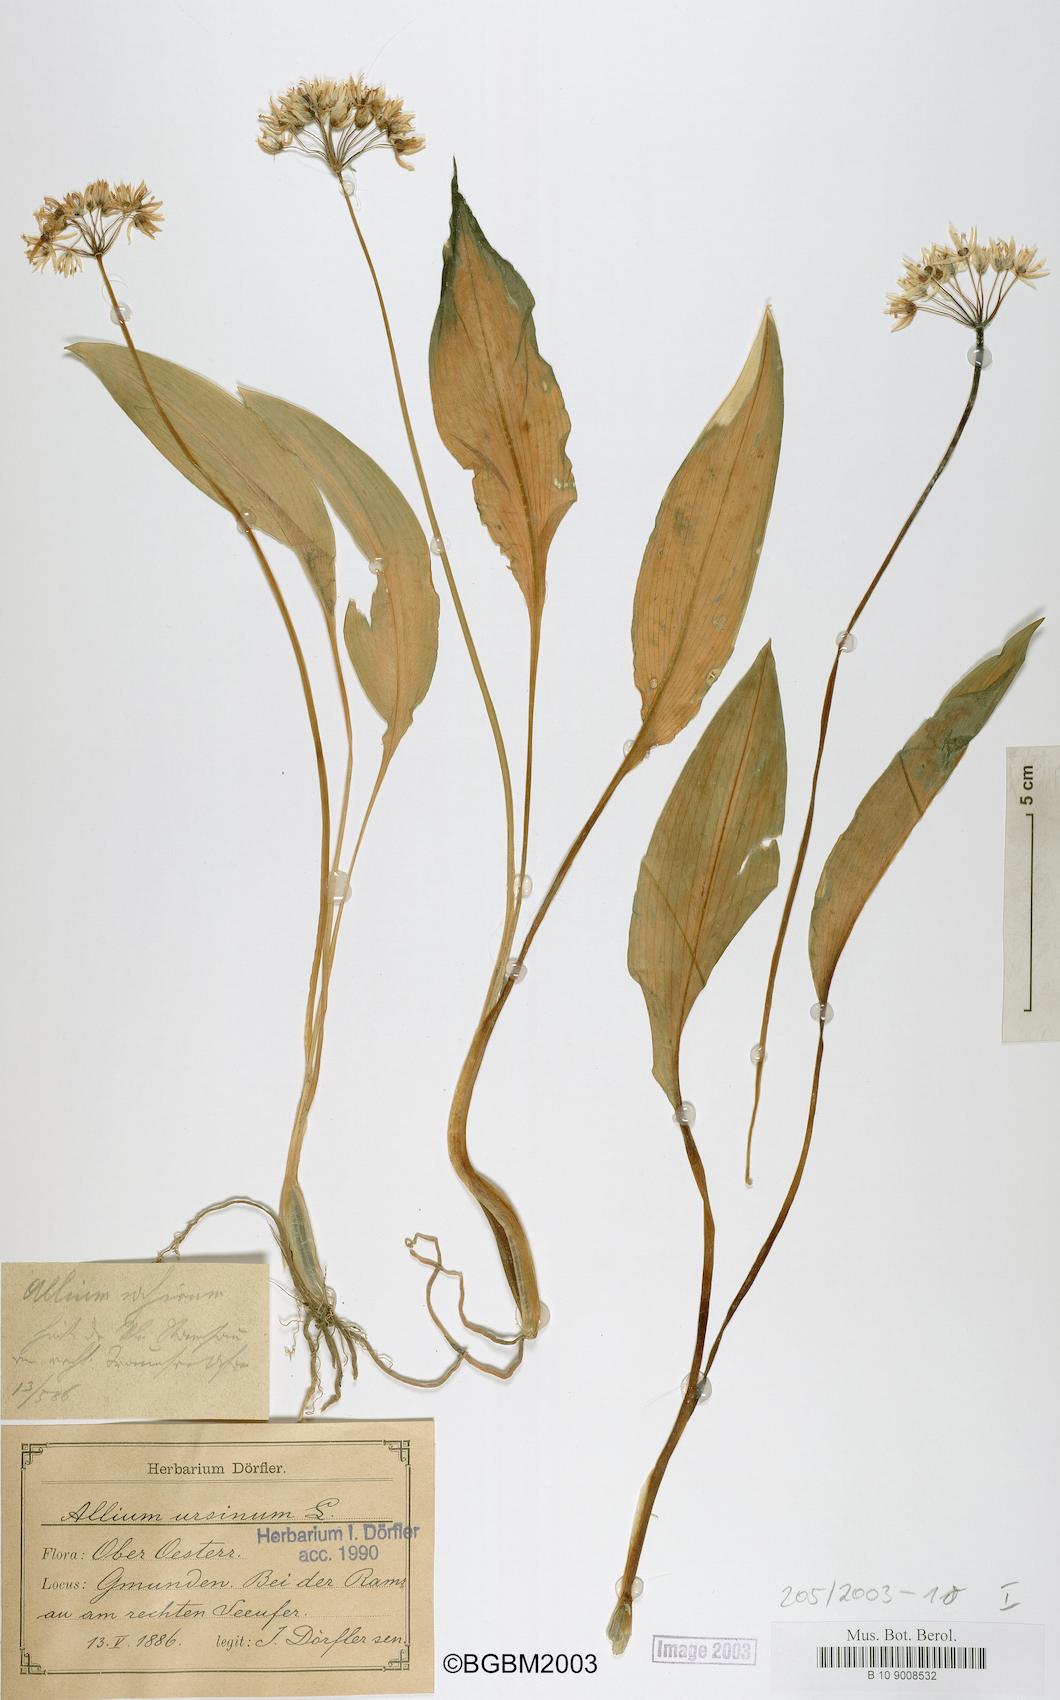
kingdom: Plantae
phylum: Tracheophyta
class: Liliopsida
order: Asparagales
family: Amaryllidaceae
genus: Allium
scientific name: Allium ursinum
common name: Ramsons
